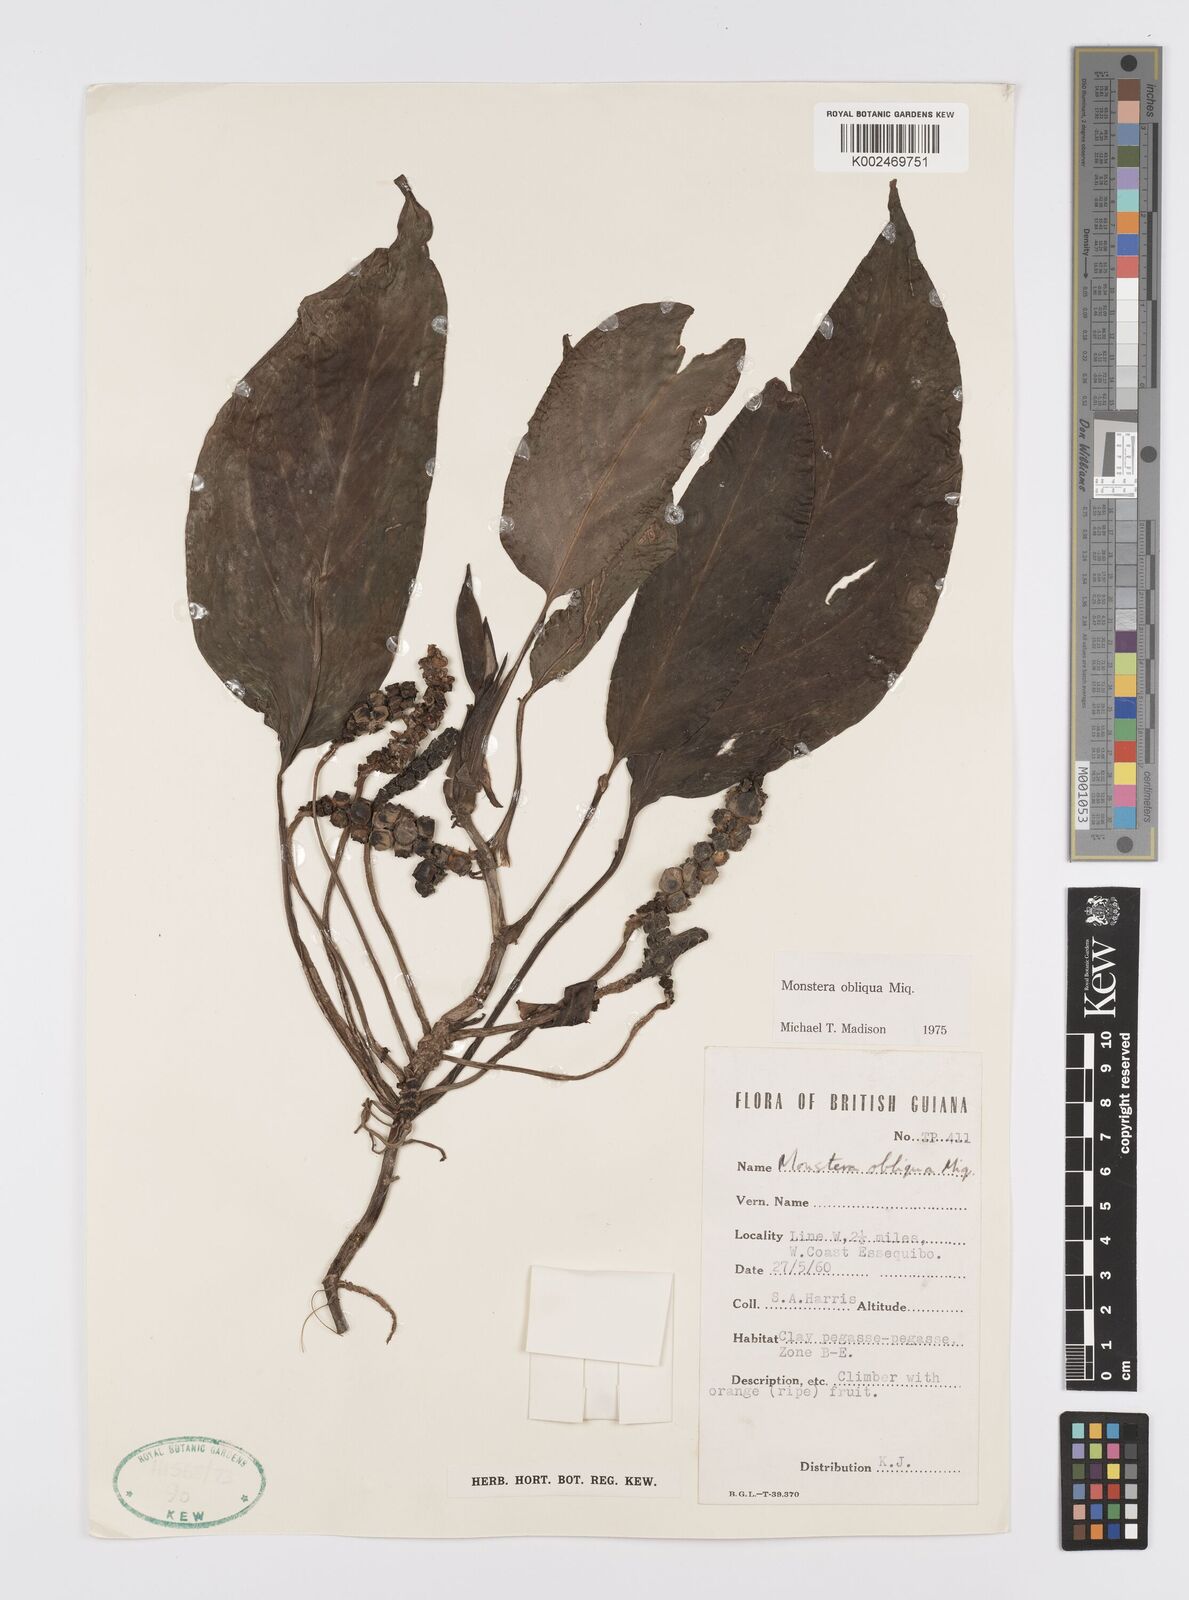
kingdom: Plantae
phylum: Tracheophyta
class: Liliopsida
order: Alismatales
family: Araceae
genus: Monstera
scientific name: Monstera obliqua
